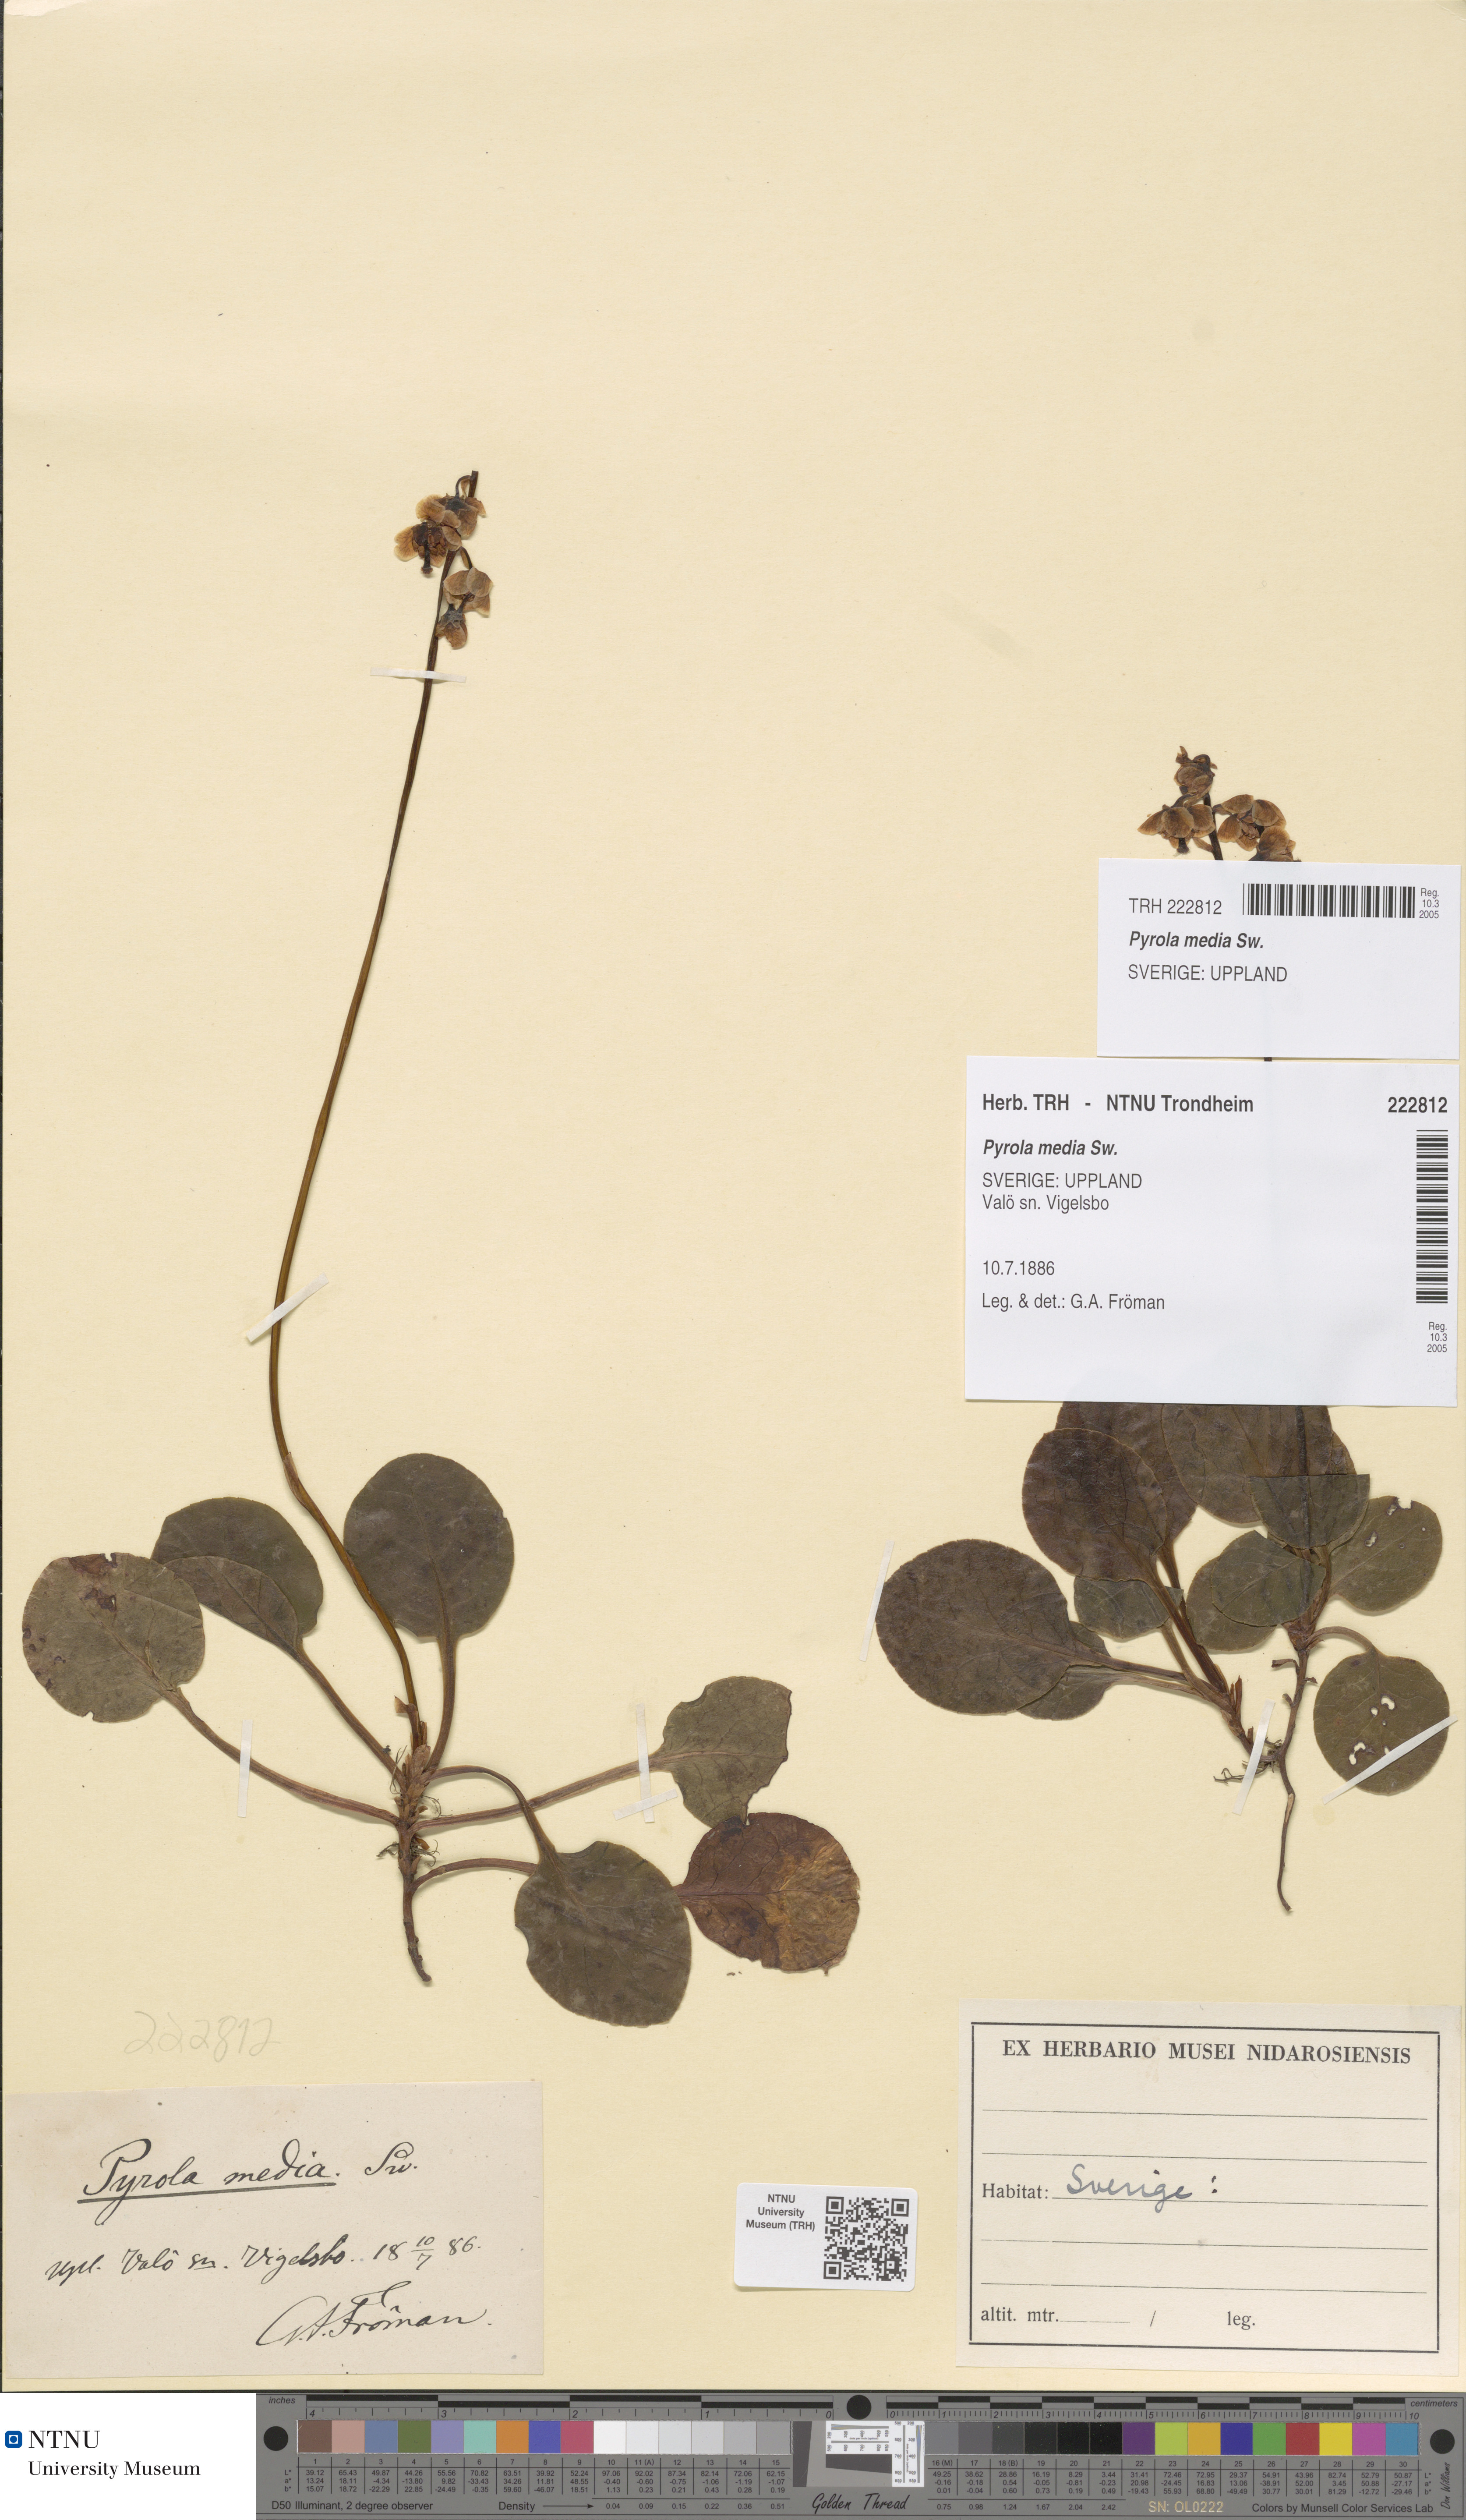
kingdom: Plantae
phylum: Tracheophyta
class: Magnoliopsida
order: Ericales
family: Ericaceae
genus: Pyrola
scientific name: Pyrola media
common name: Intermediate wintergreen
